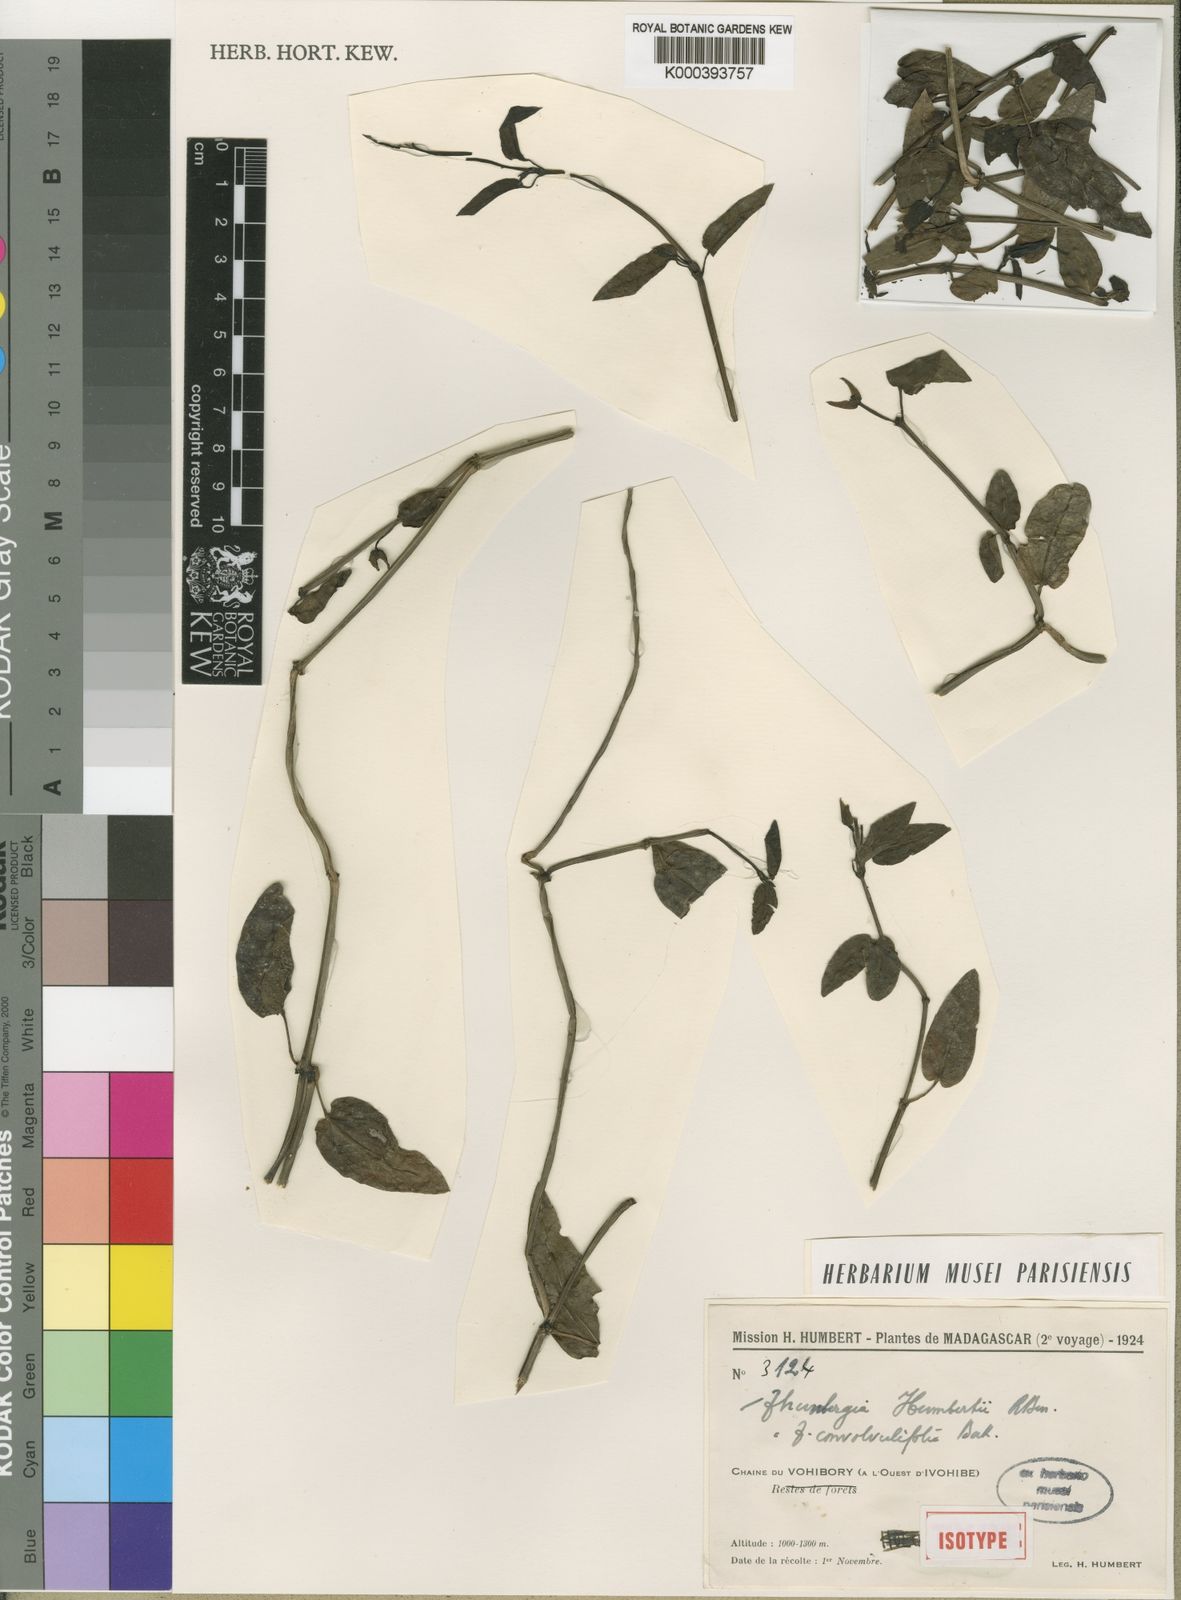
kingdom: Plantae
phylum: Tracheophyta
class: Magnoliopsida
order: Lamiales
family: Acanthaceae
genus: Thunbergia
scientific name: Thunbergia convolvulifolia
